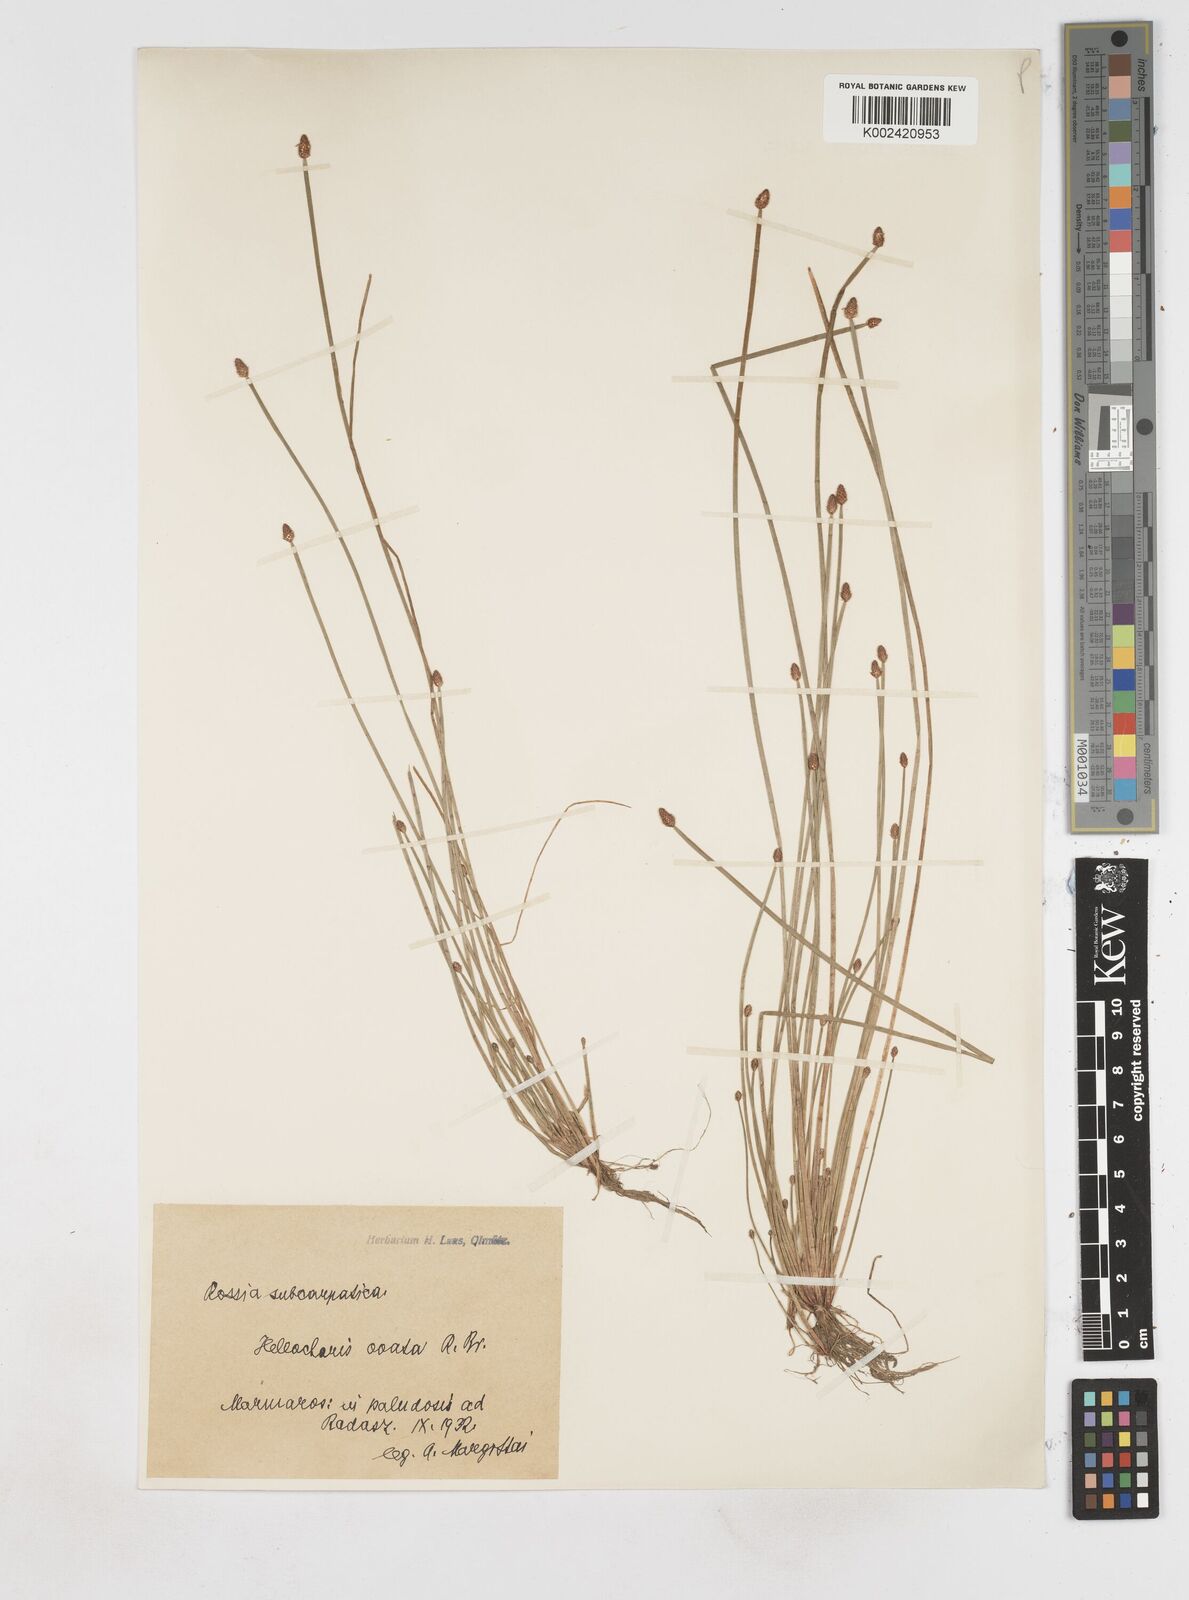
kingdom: Plantae
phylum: Tracheophyta
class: Liliopsida
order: Poales
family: Cyperaceae
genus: Eleocharis
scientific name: Eleocharis ovata
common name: Oval spike-rush
